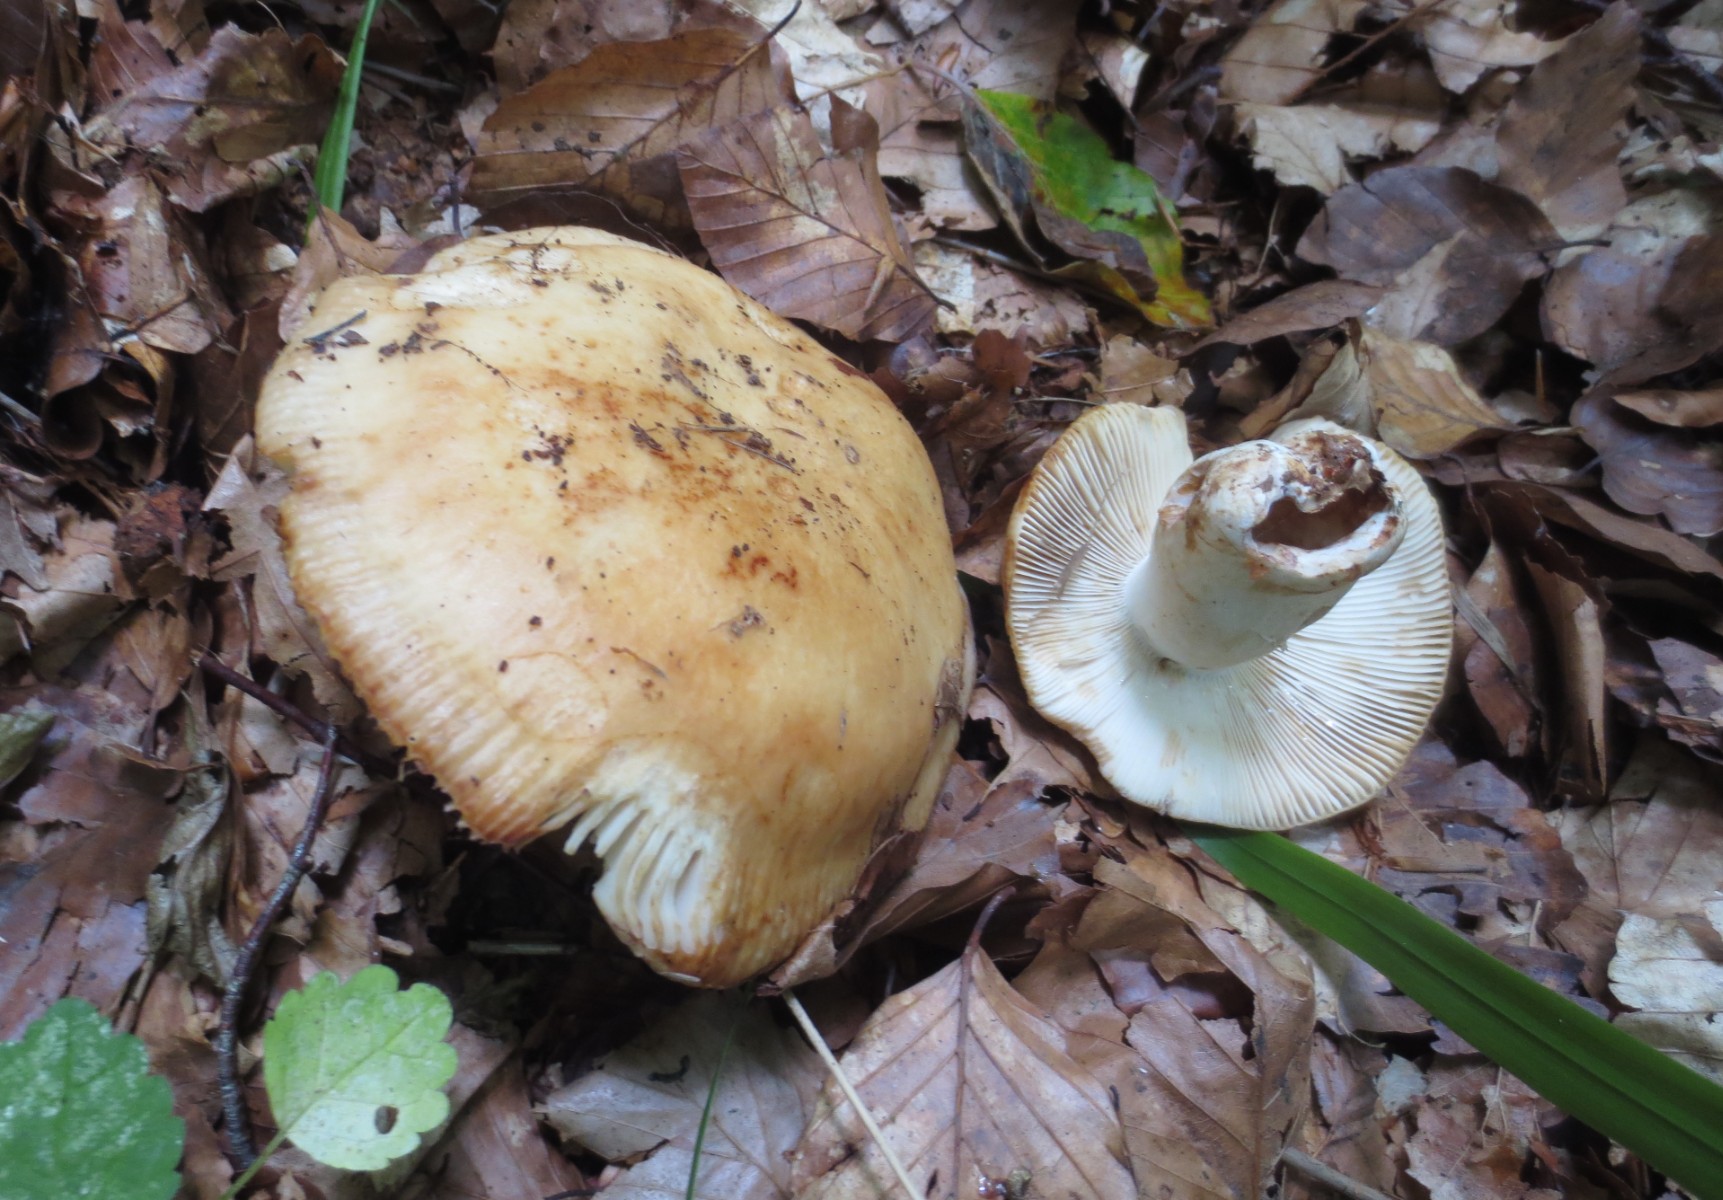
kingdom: Fungi
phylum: Basidiomycota
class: Agaricomycetes
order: Russulales
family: Russulaceae
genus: Russula
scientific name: Russula grata
